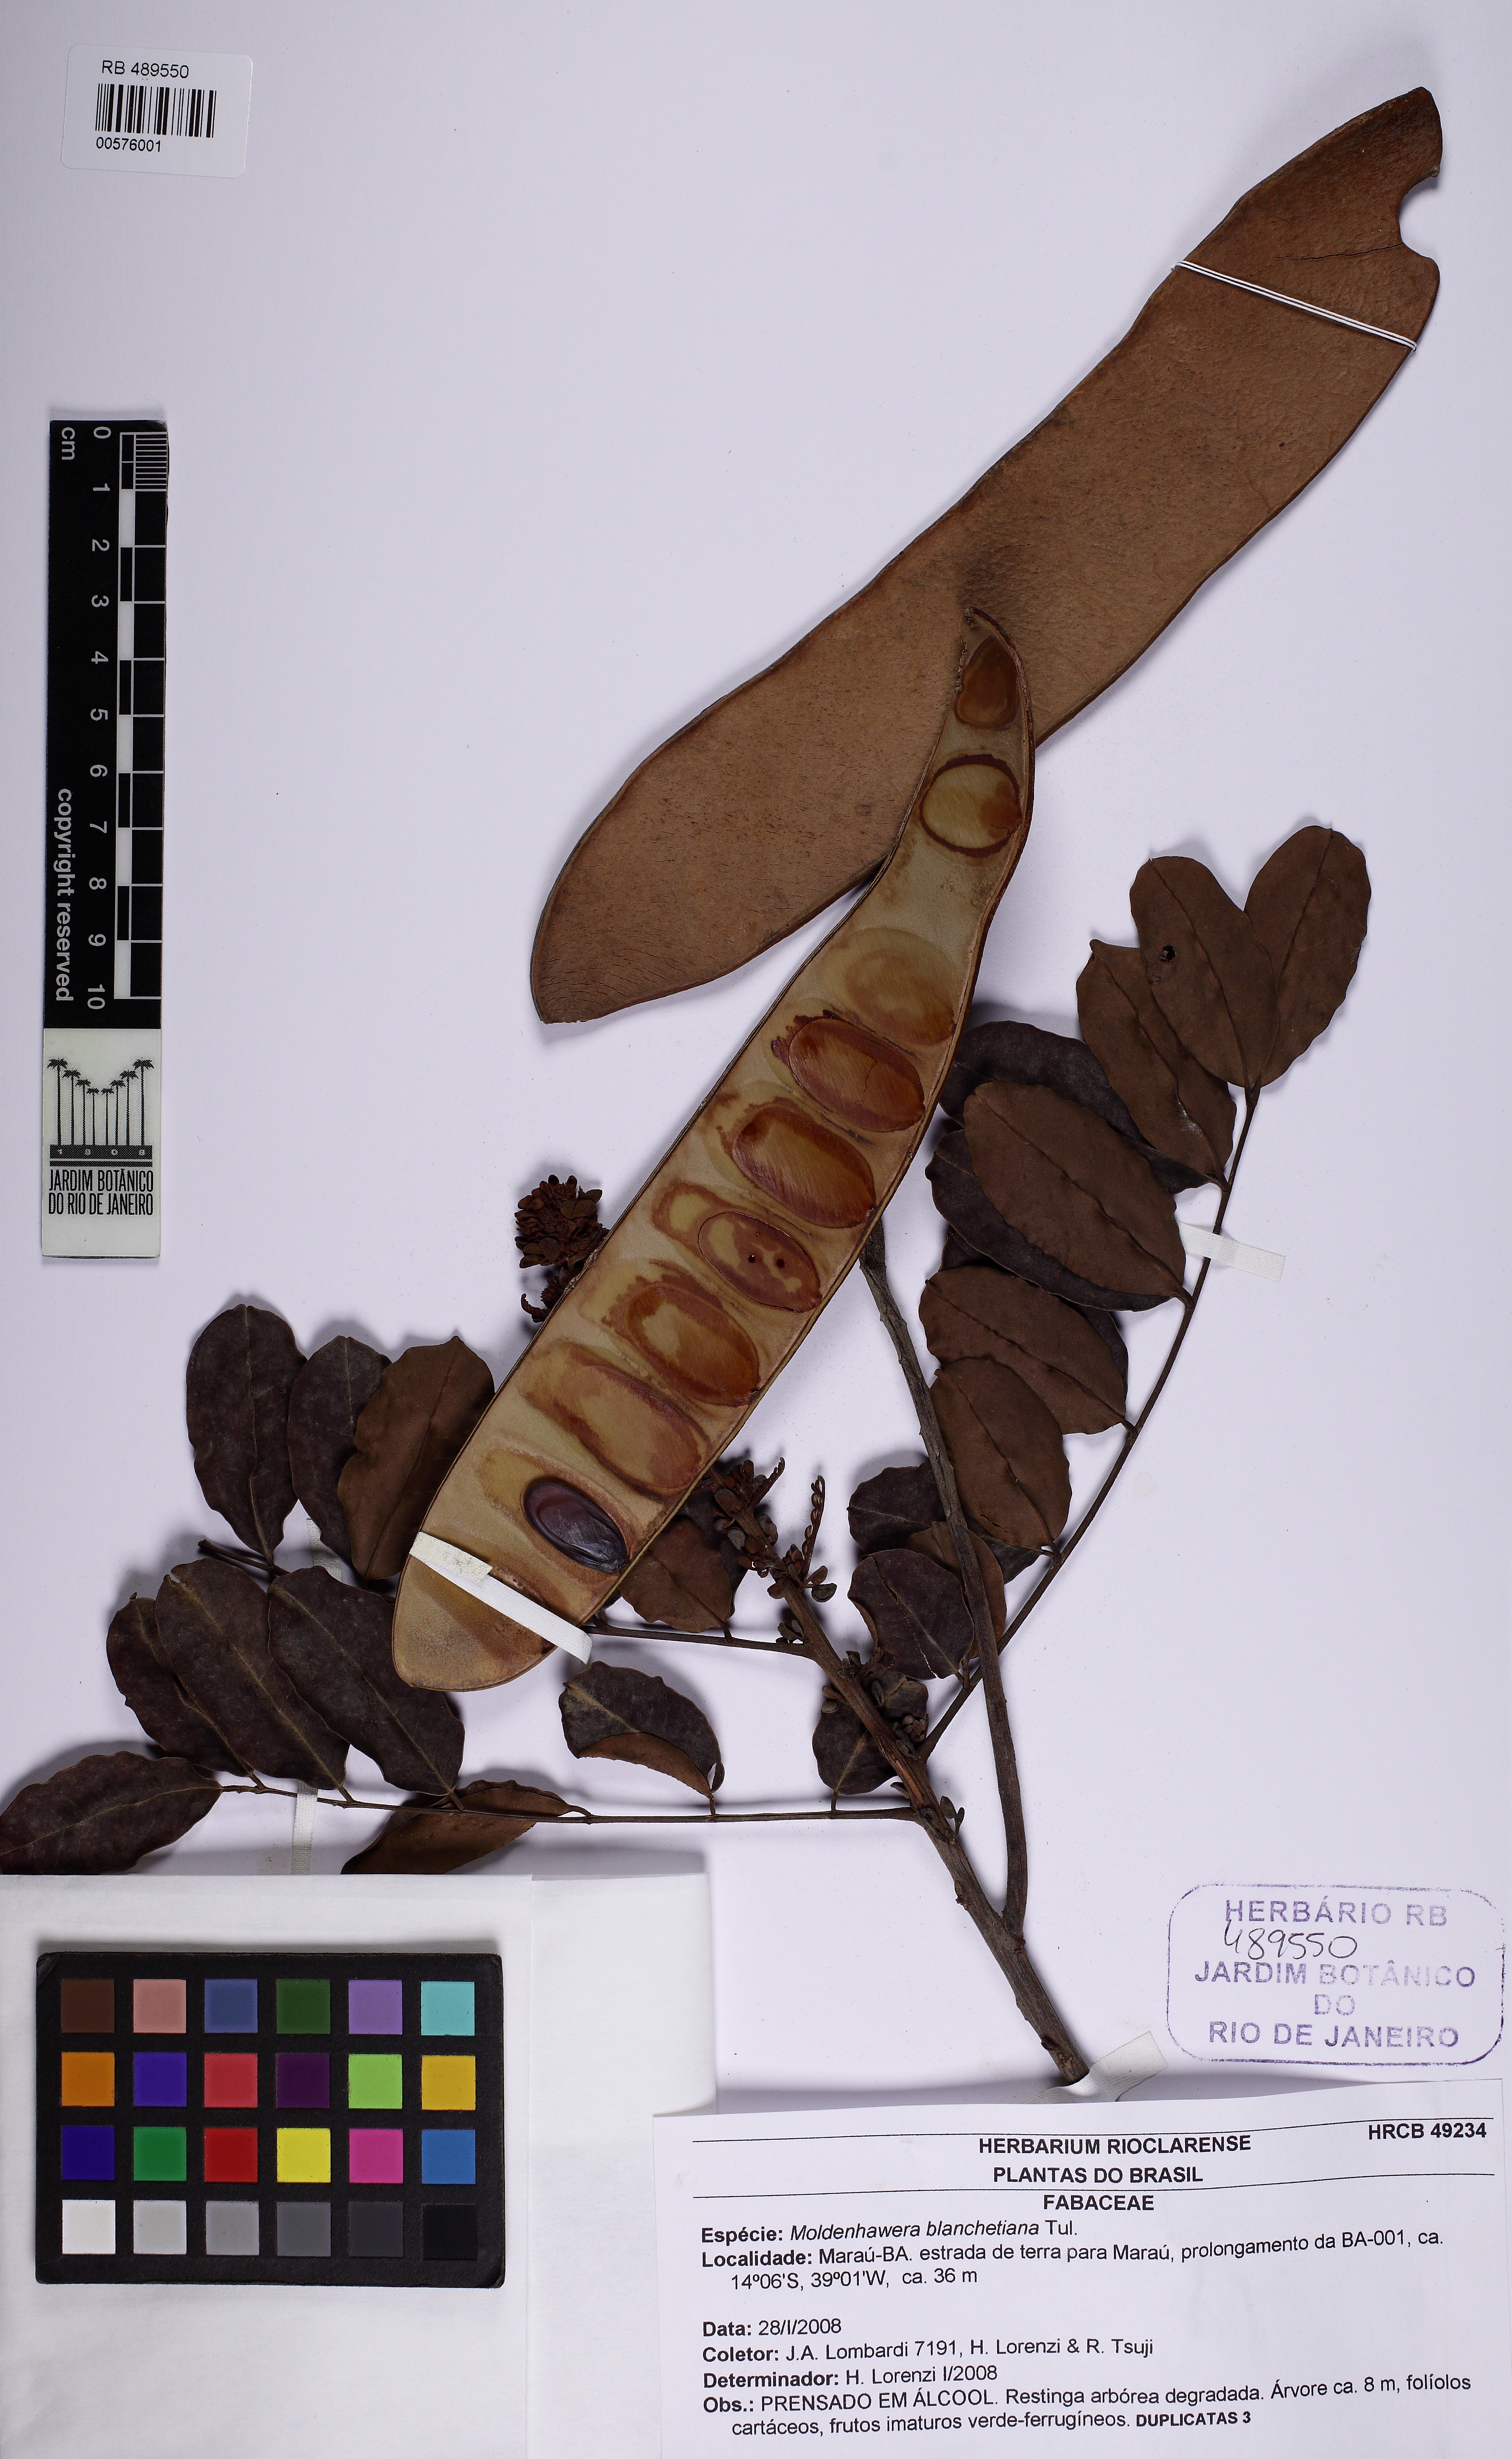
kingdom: Plantae
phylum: Tracheophyta
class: Magnoliopsida
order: Fabales
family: Fabaceae
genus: Moldenhawera
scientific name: Moldenhawera blanchetiana
